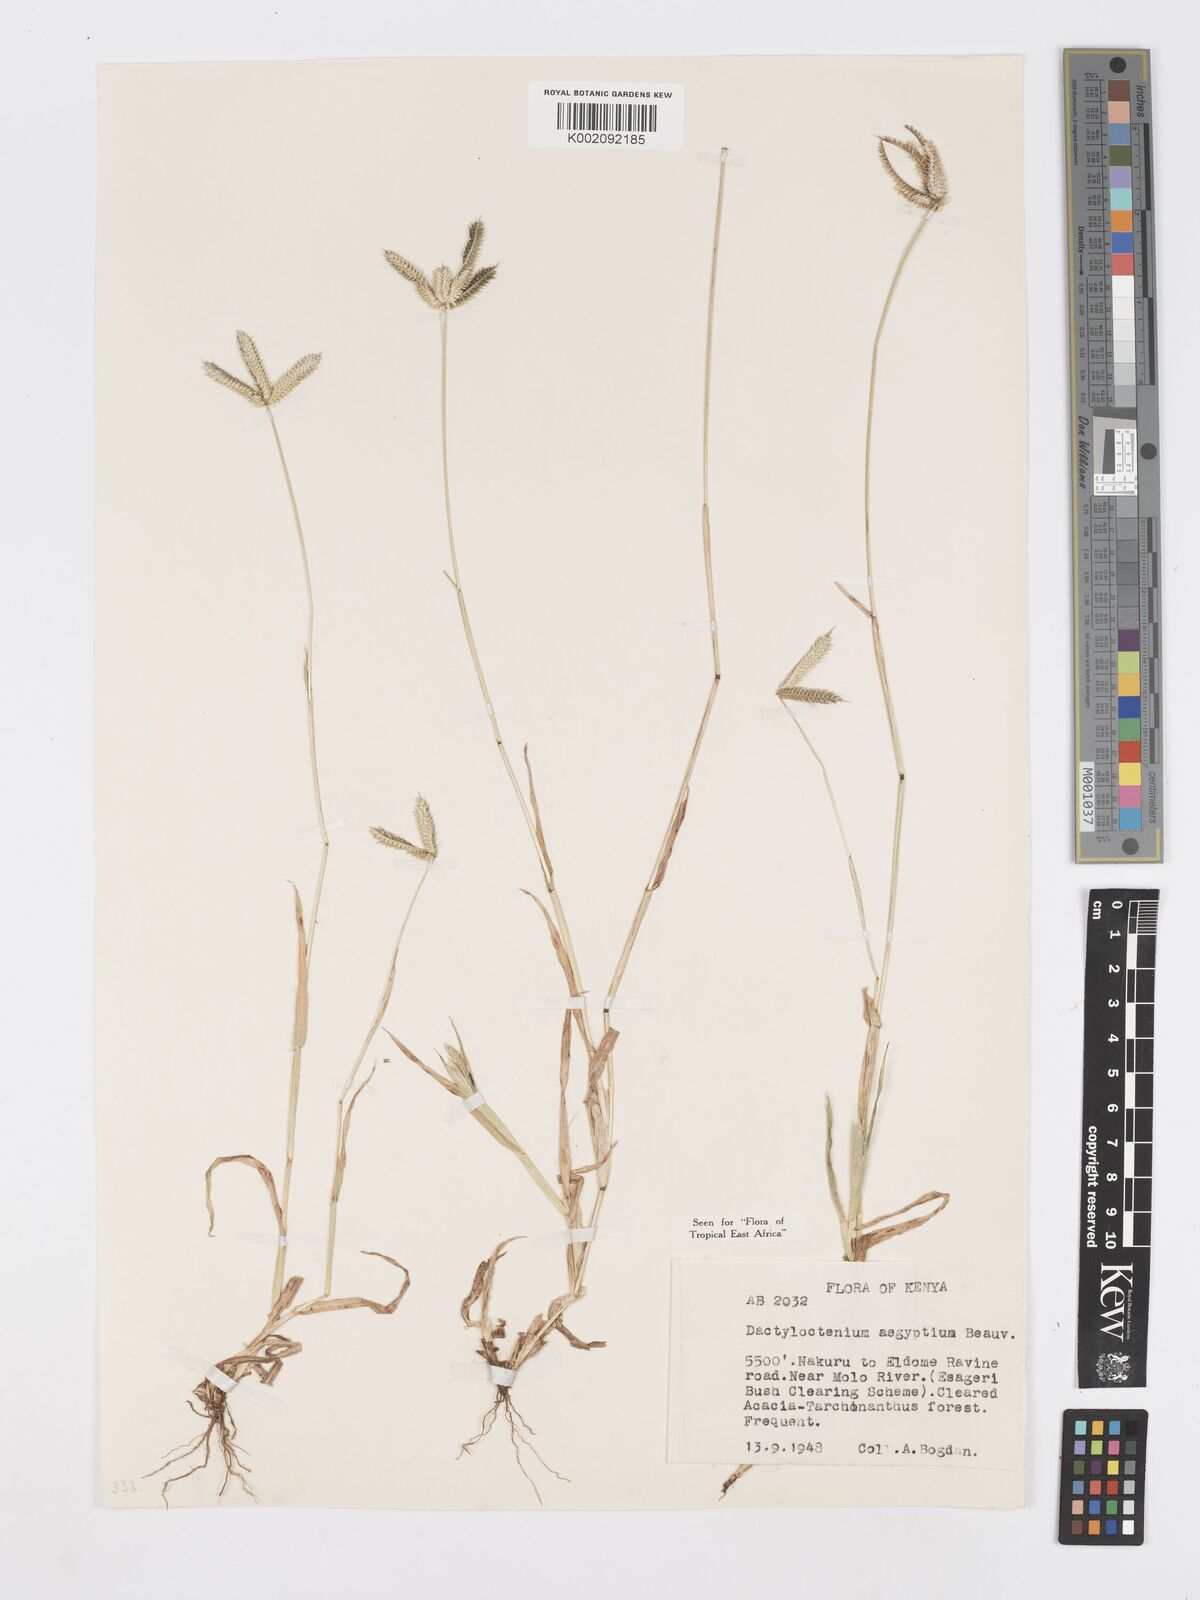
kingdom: Plantae
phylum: Tracheophyta
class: Liliopsida
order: Poales
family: Poaceae
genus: Dactyloctenium
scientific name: Dactyloctenium aegyptium
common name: Egyptian grass
